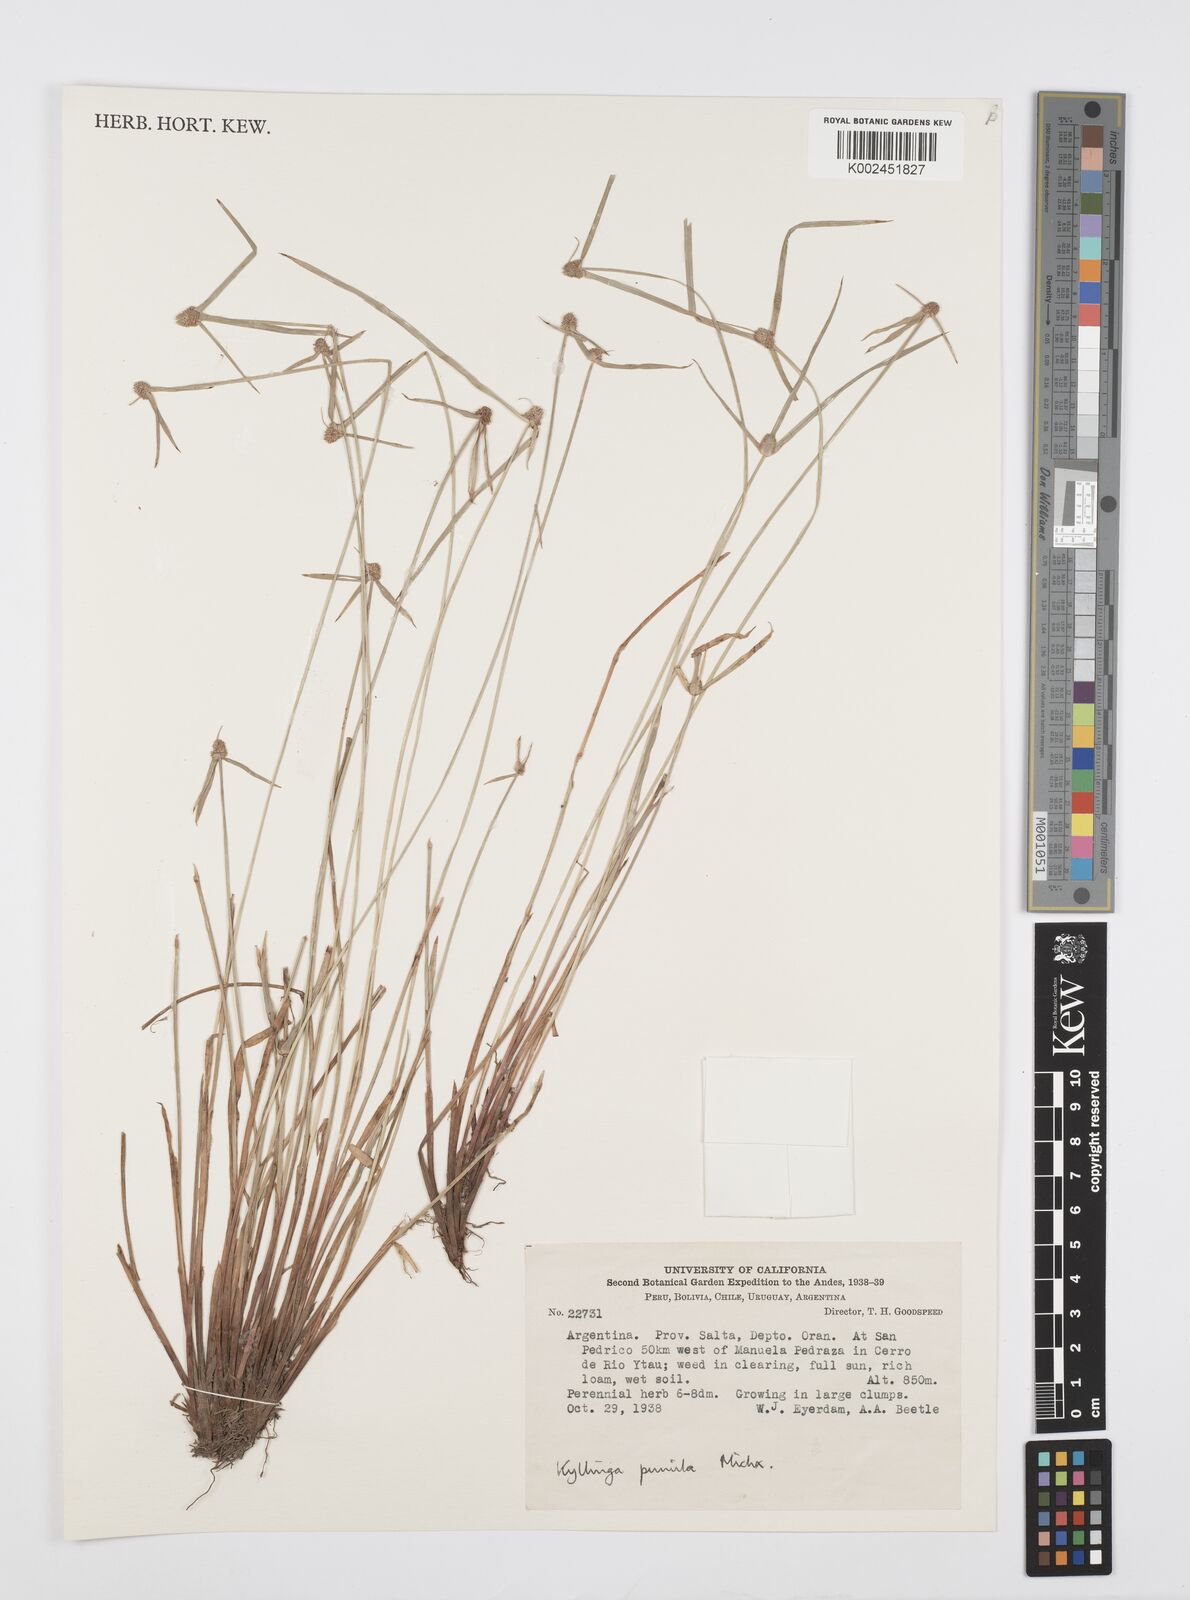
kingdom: Plantae
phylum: Tracheophyta
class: Liliopsida
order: Poales
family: Cyperaceae
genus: Cyperus
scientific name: Cyperus pumilus
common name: Low flatsedge
